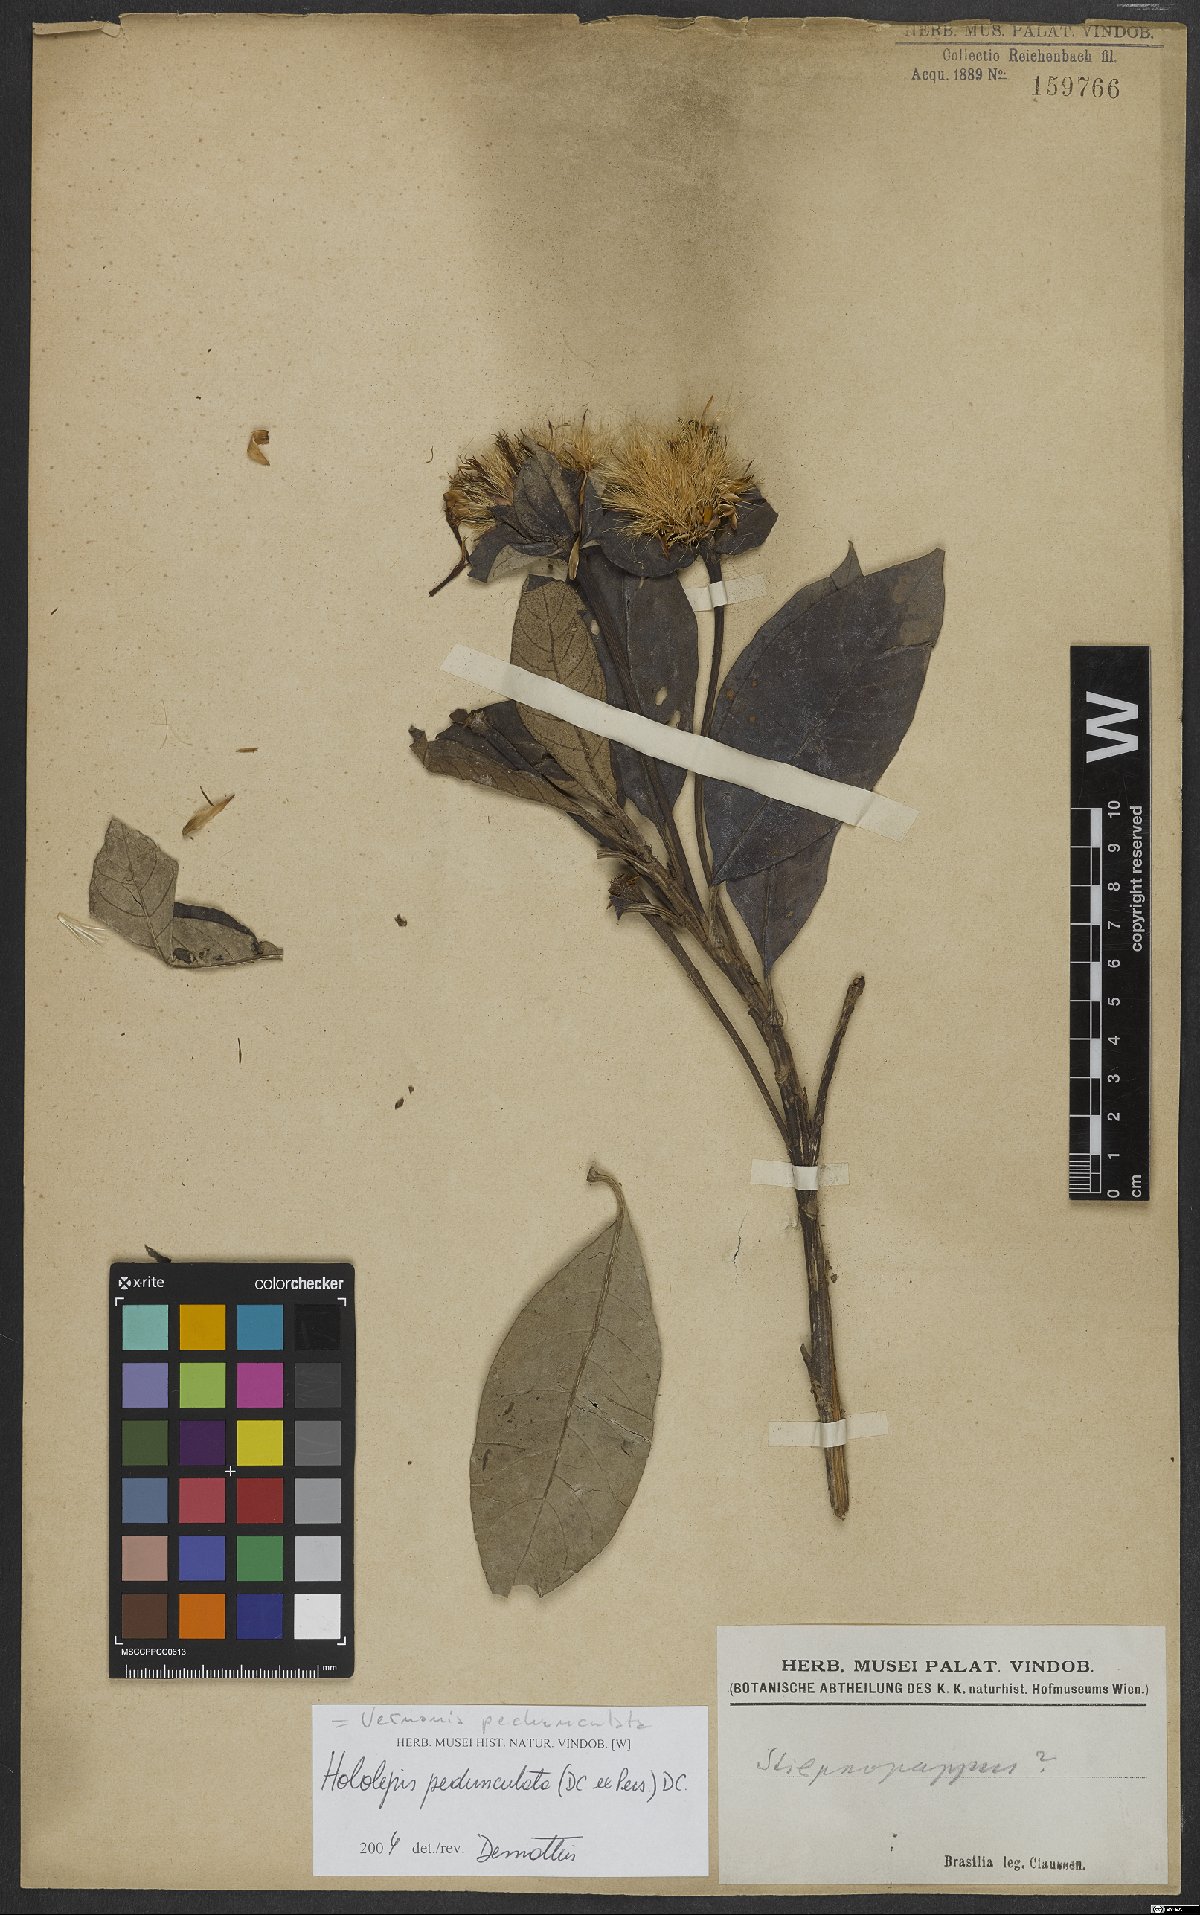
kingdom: Plantae
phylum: Tracheophyta
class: Magnoliopsida
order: Asterales
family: Asteraceae
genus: Hololepis
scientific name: Hololepis pedunculata
